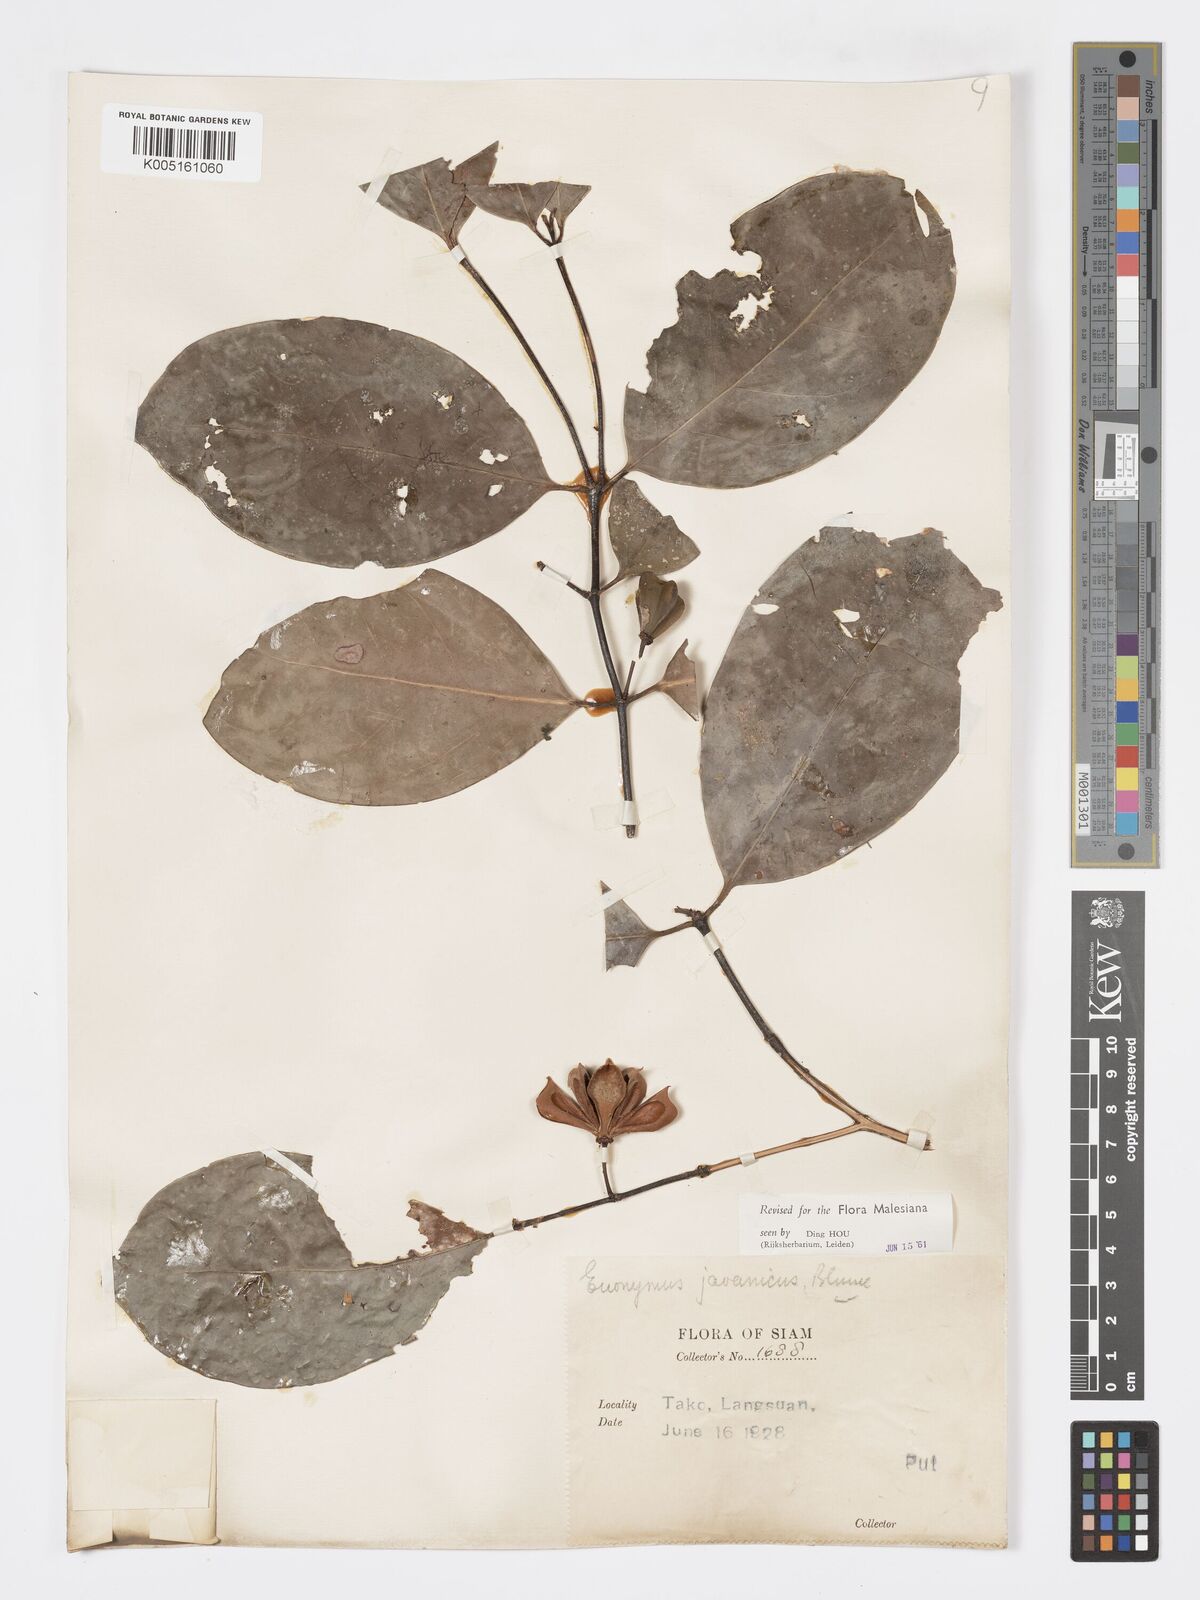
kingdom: Plantae
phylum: Tracheophyta
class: Magnoliopsida
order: Celastrales
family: Celastraceae
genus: Euonymus
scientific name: Euonymus indicus
